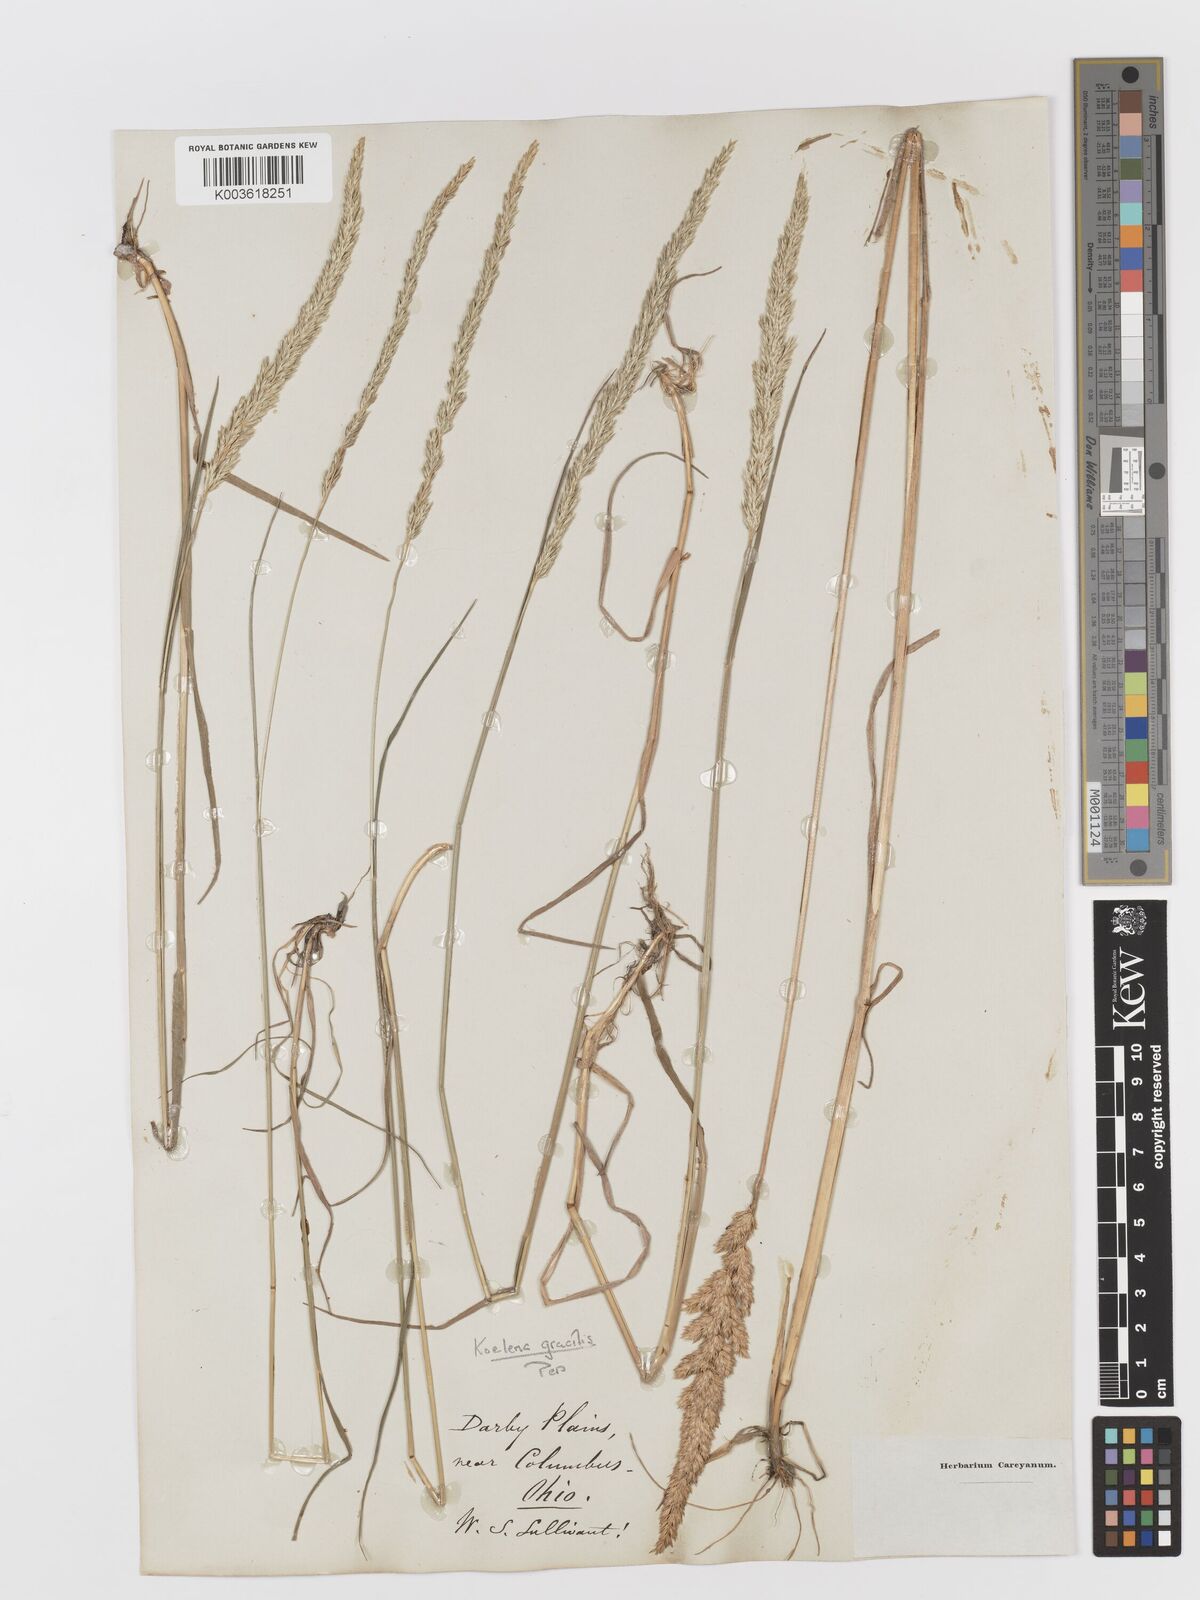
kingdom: Plantae
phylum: Tracheophyta
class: Liliopsida
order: Poales
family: Poaceae
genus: Koeleria
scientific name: Koeleria macrantha
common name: Crested hair-grass
